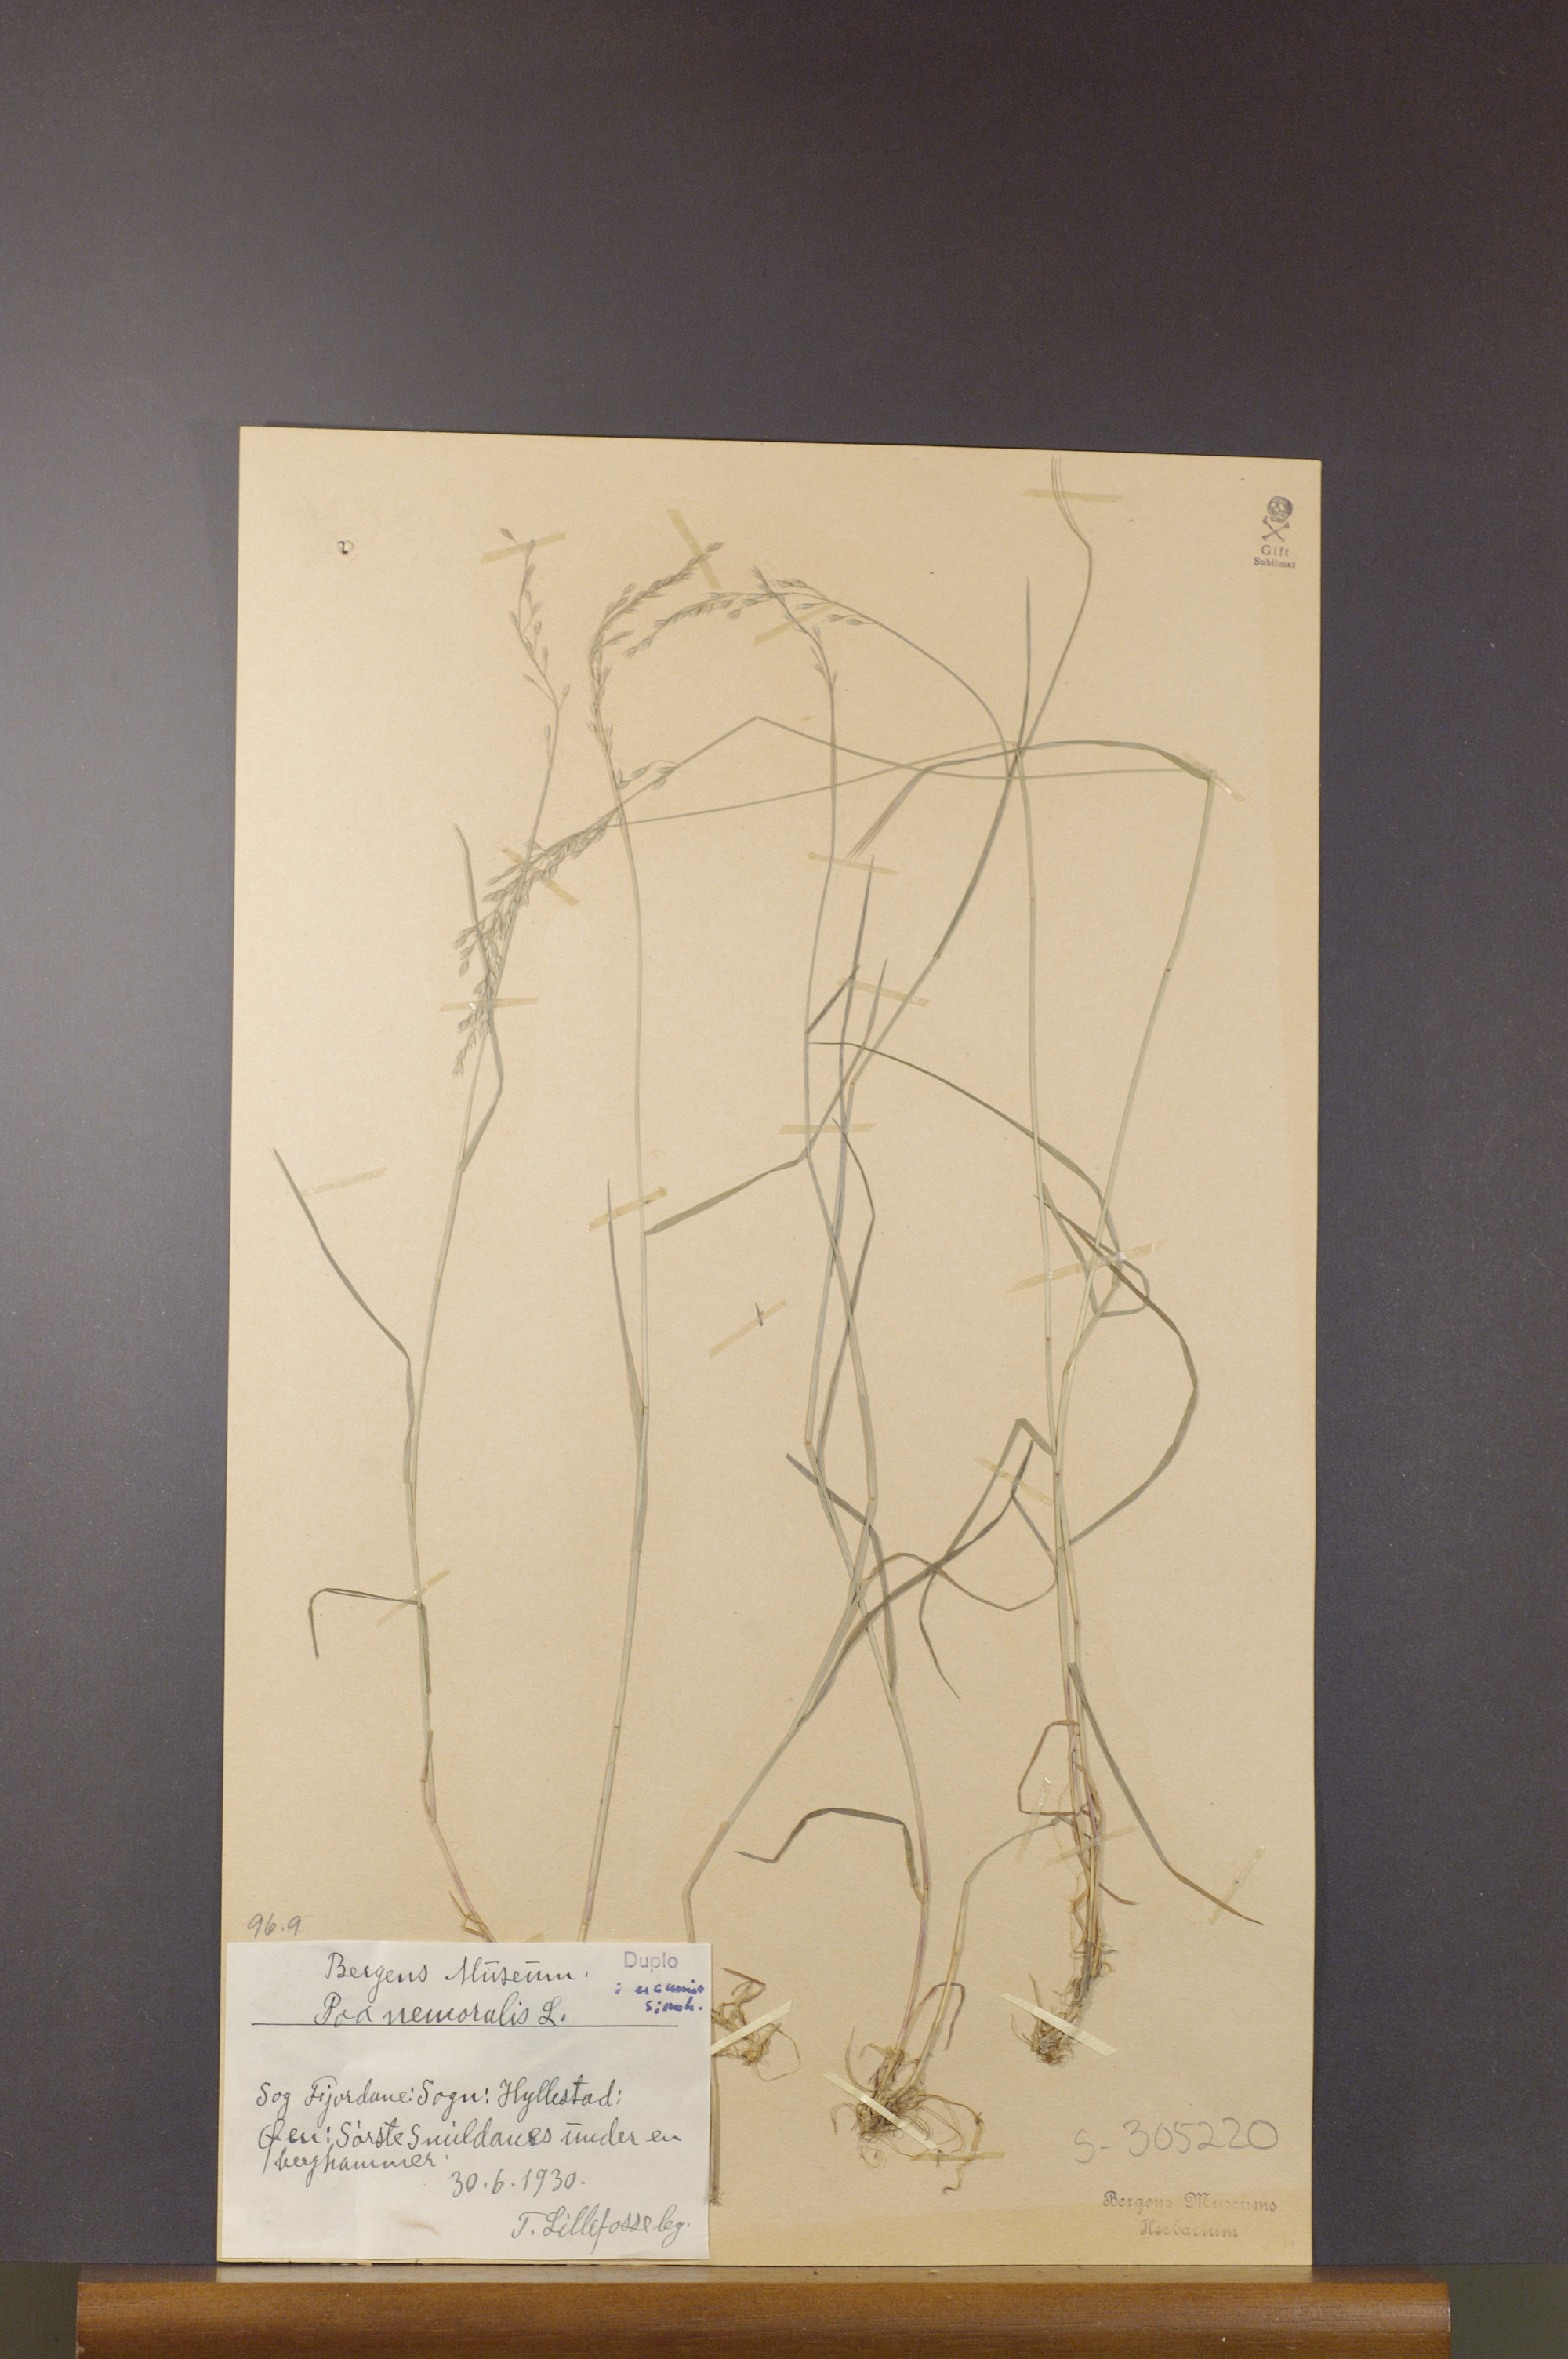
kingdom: Plantae
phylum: Tracheophyta
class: Liliopsida
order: Poales
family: Poaceae
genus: Poa
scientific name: Poa nemoralis
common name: Wood bluegrass
